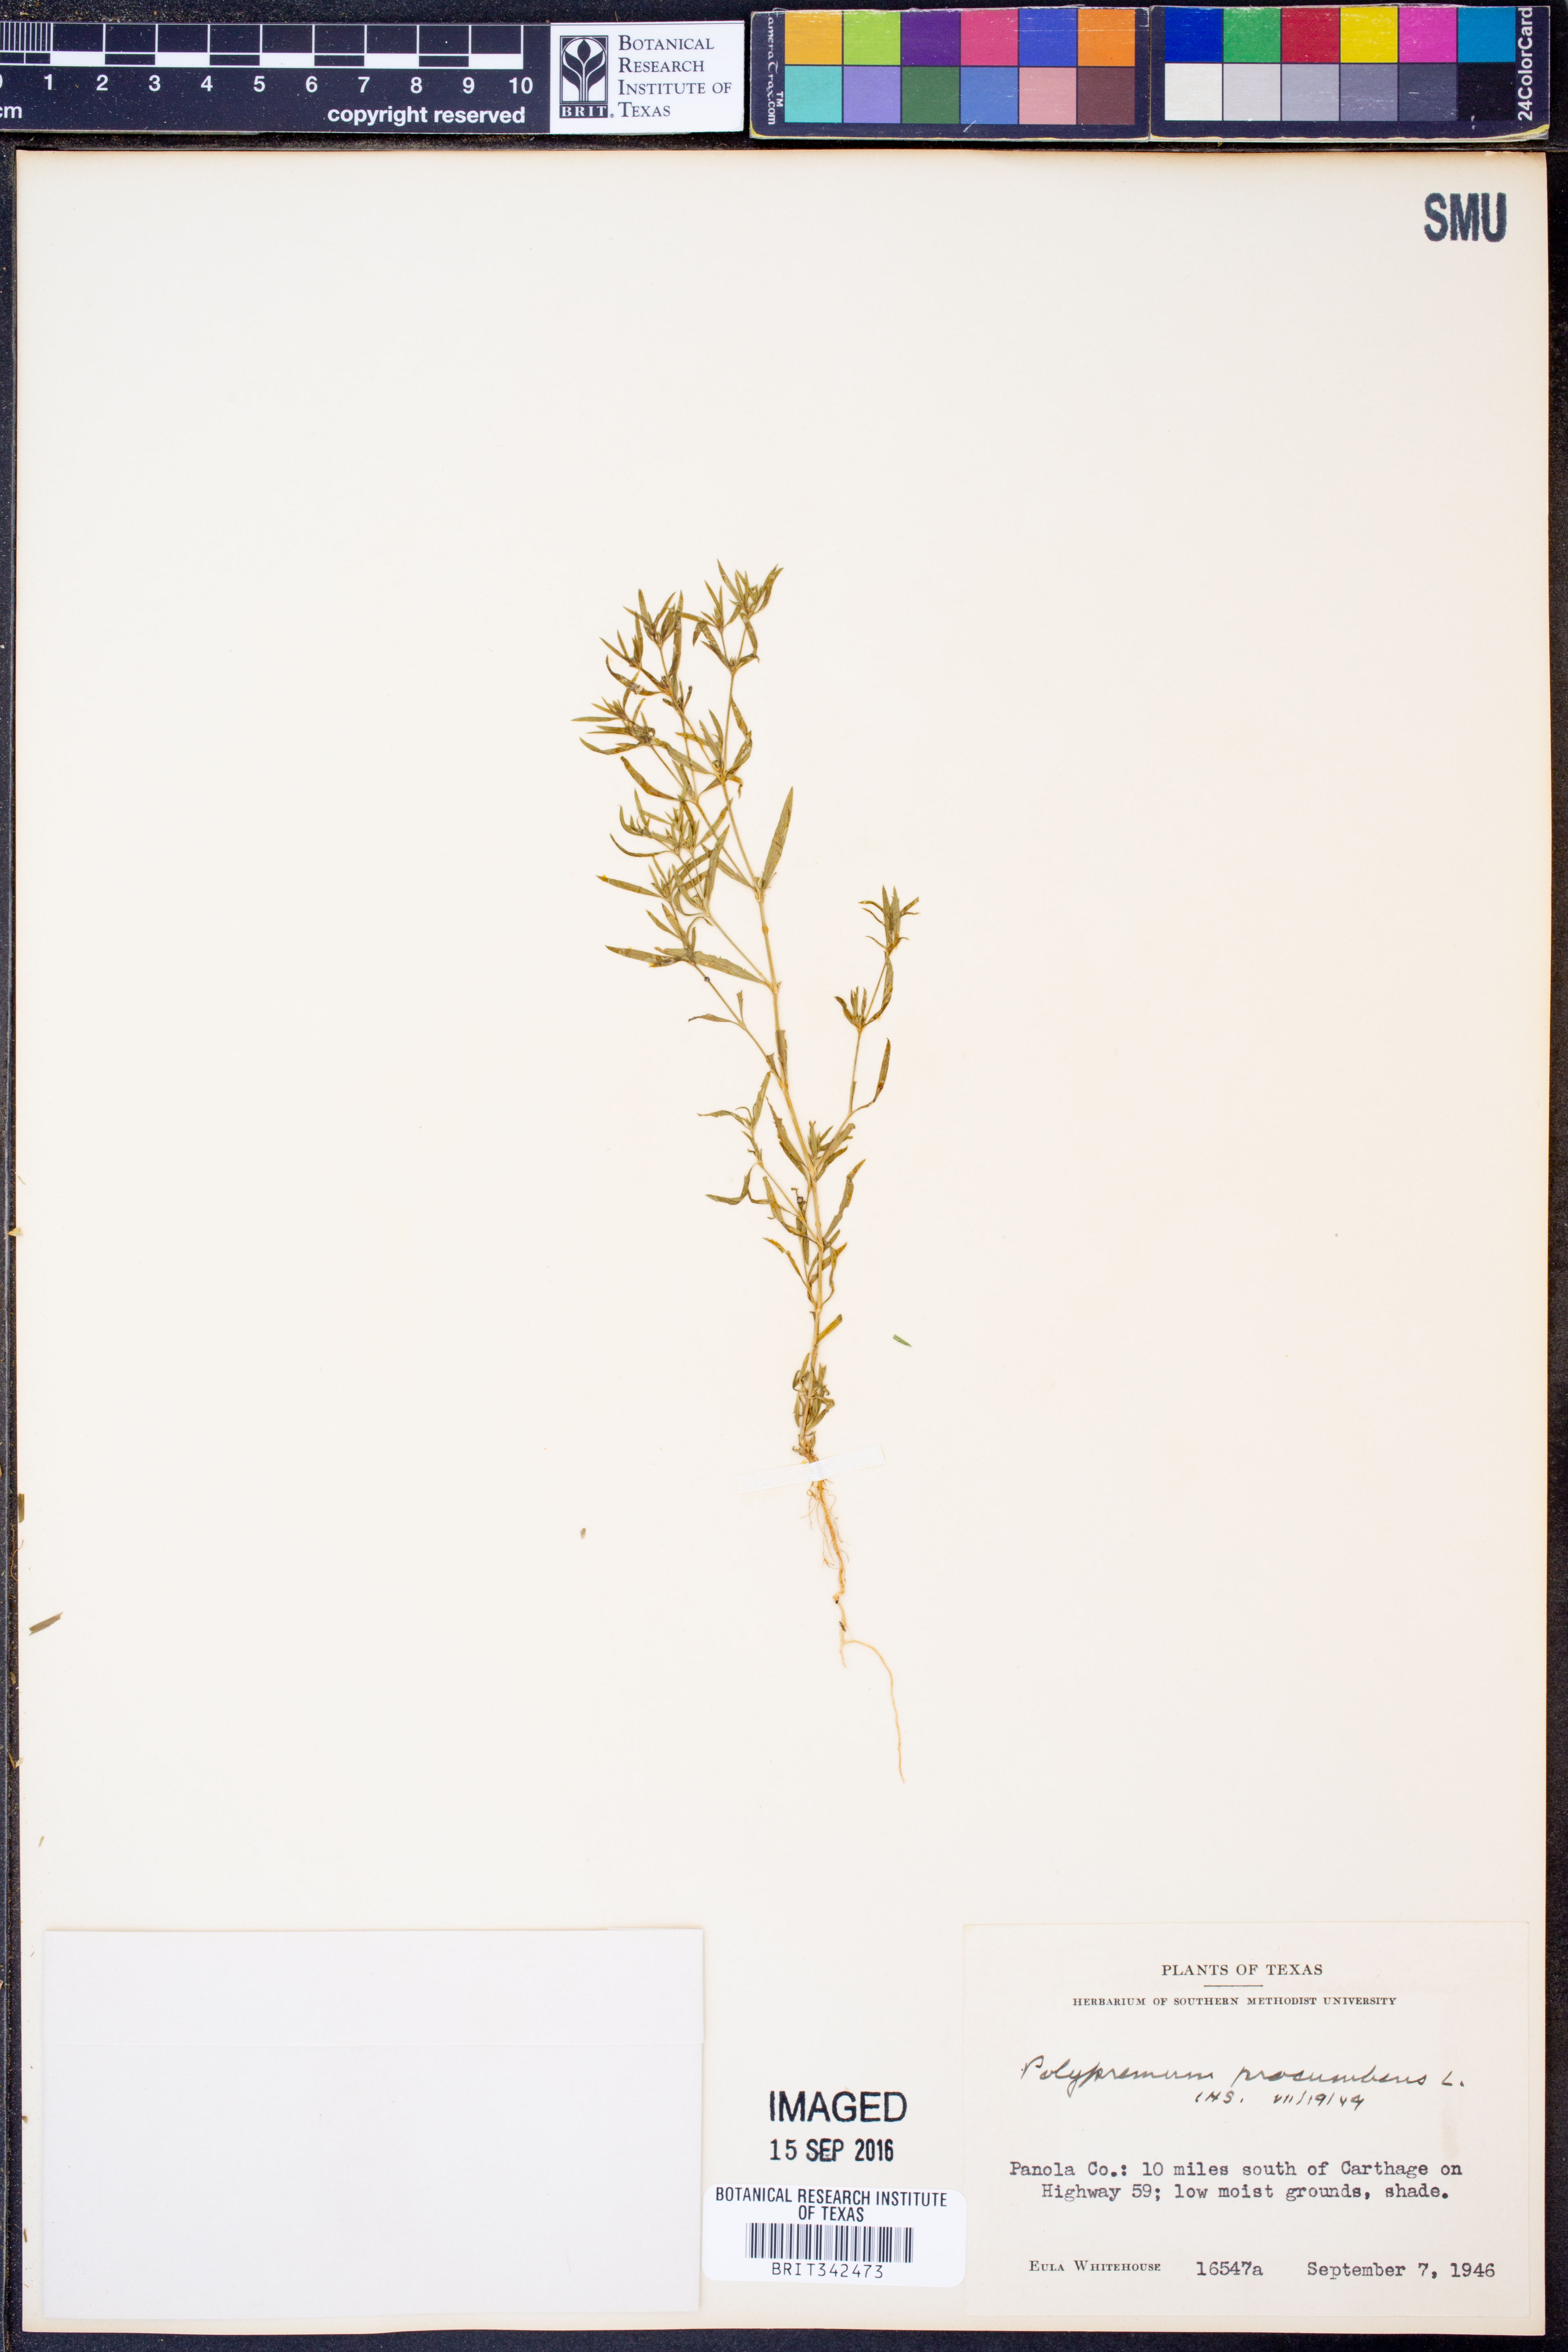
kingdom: Plantae
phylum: Tracheophyta
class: Magnoliopsida
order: Lamiales
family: Tetrachondraceae
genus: Polypremum
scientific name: Polypremum procumbens
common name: Juniper-leaf
